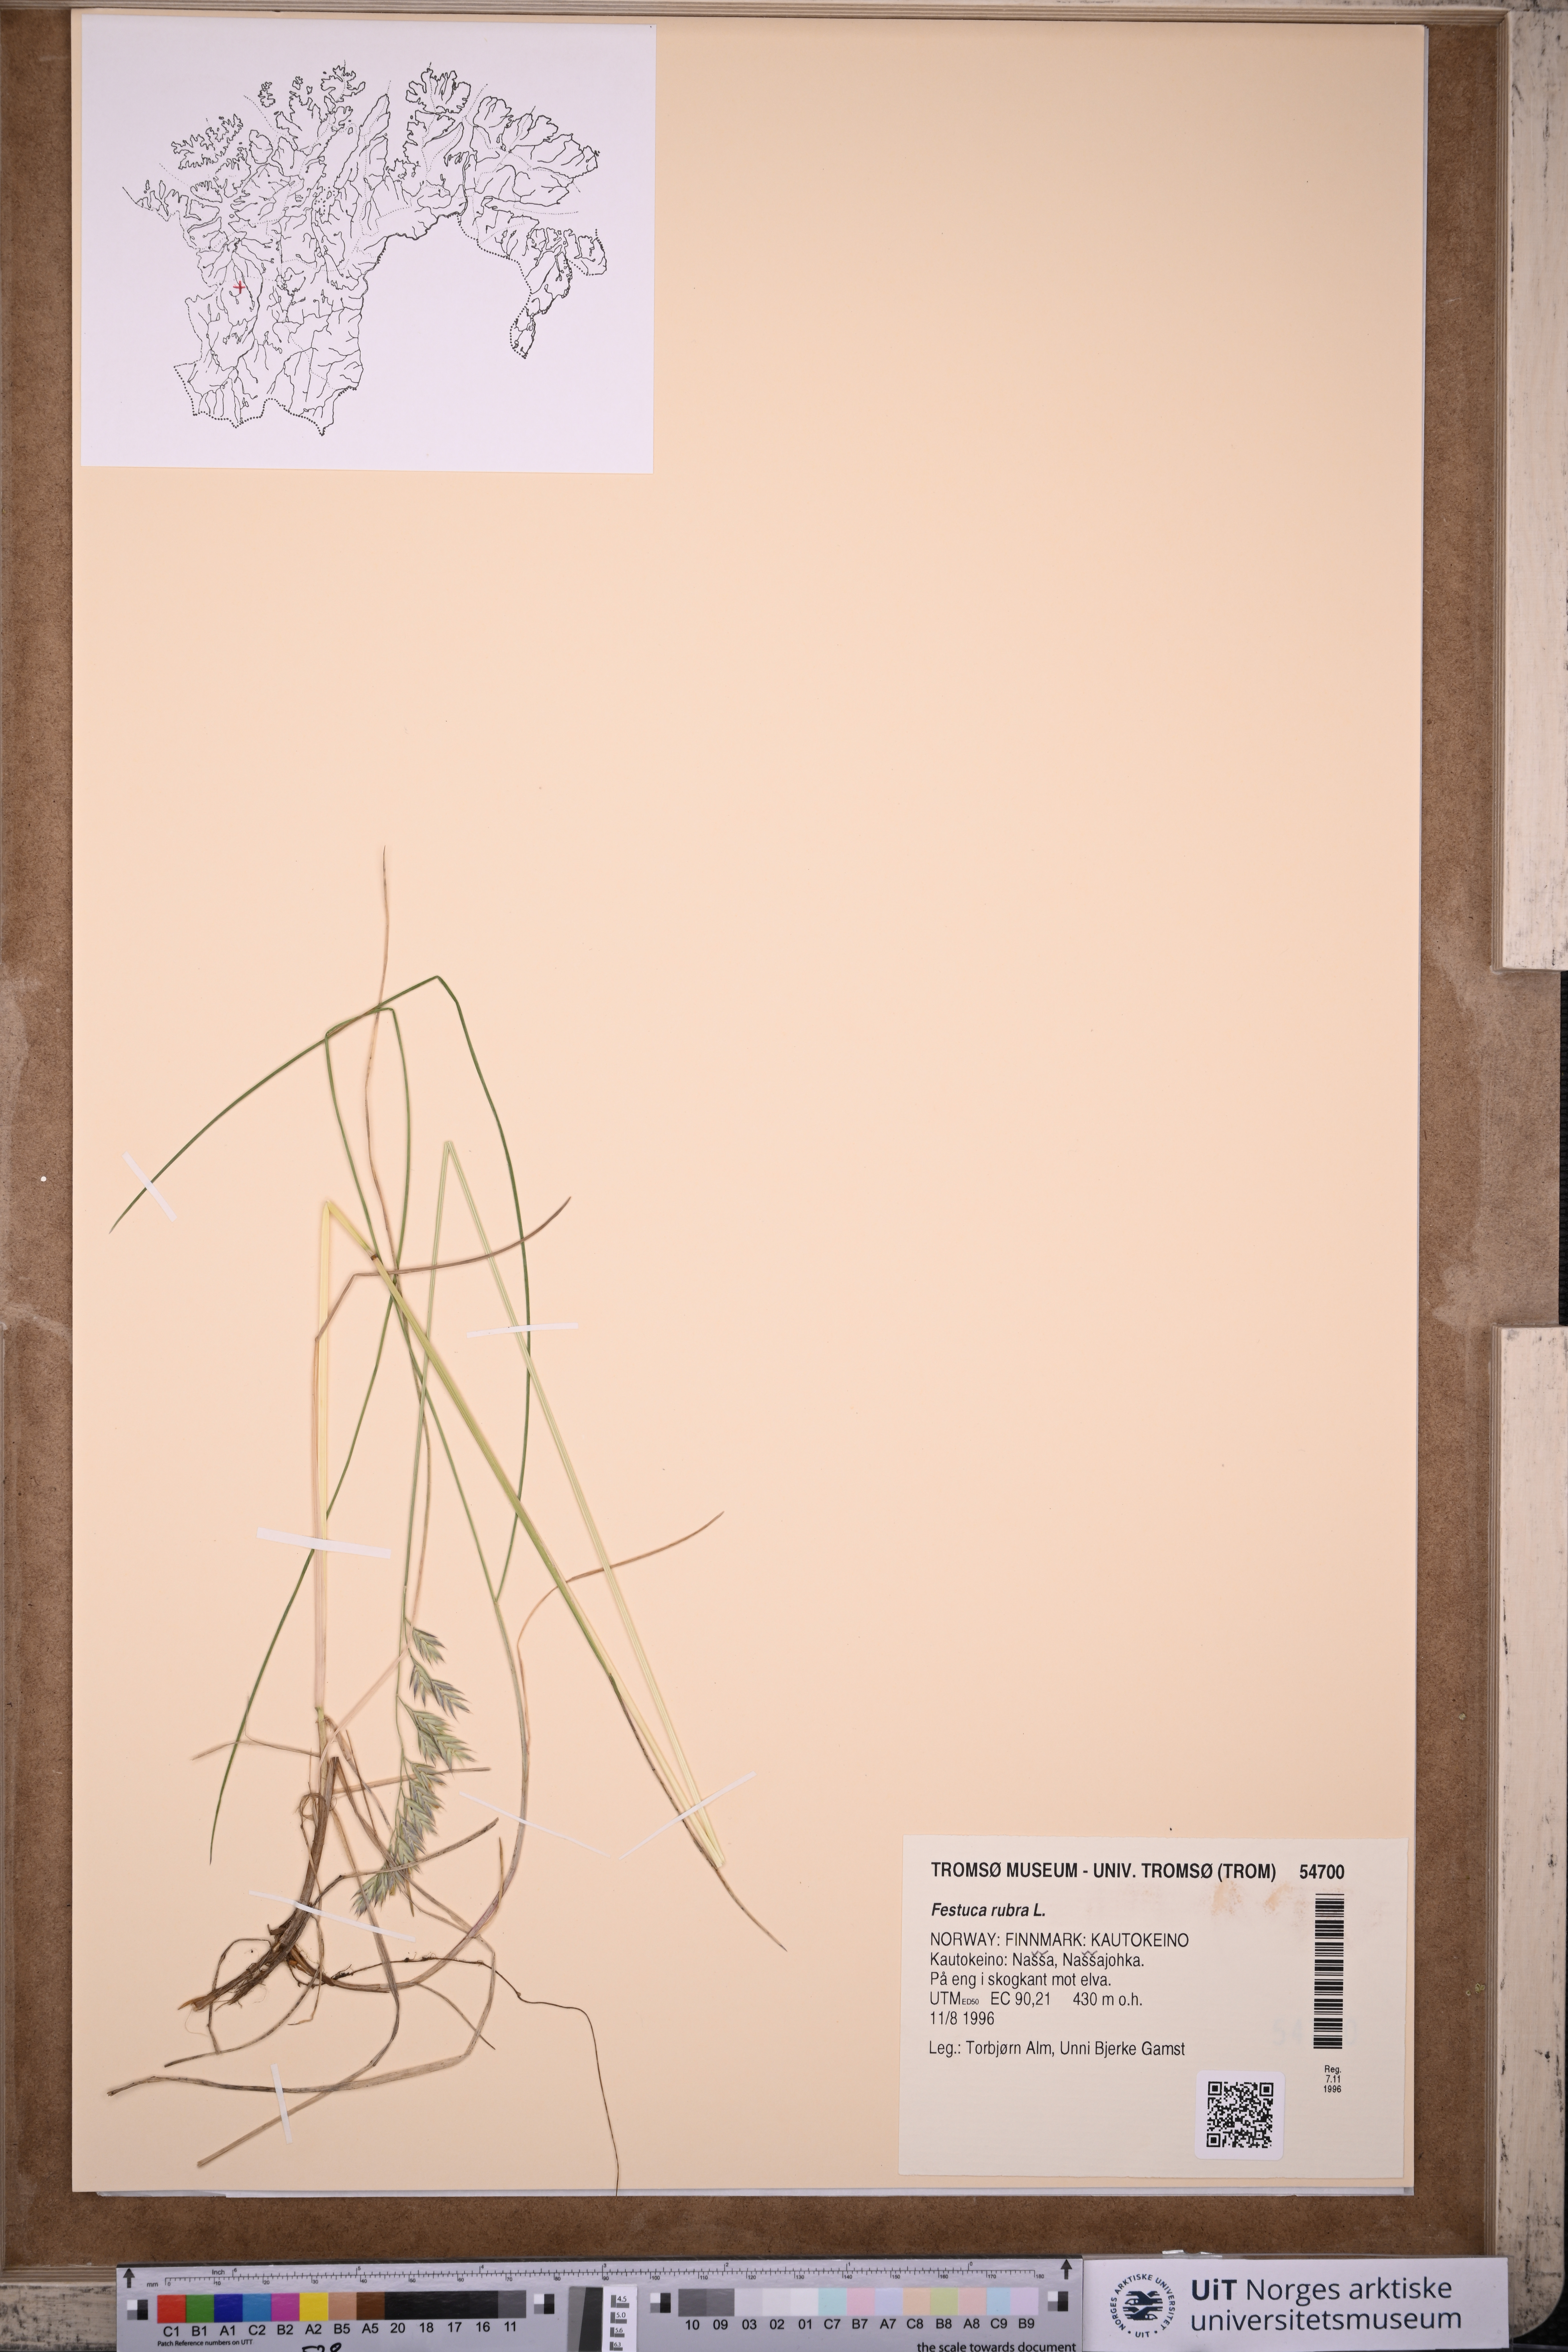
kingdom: Plantae
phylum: Tracheophyta
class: Liliopsida
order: Poales
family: Poaceae
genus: Festuca
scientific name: Festuca rubra
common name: Red fescue
